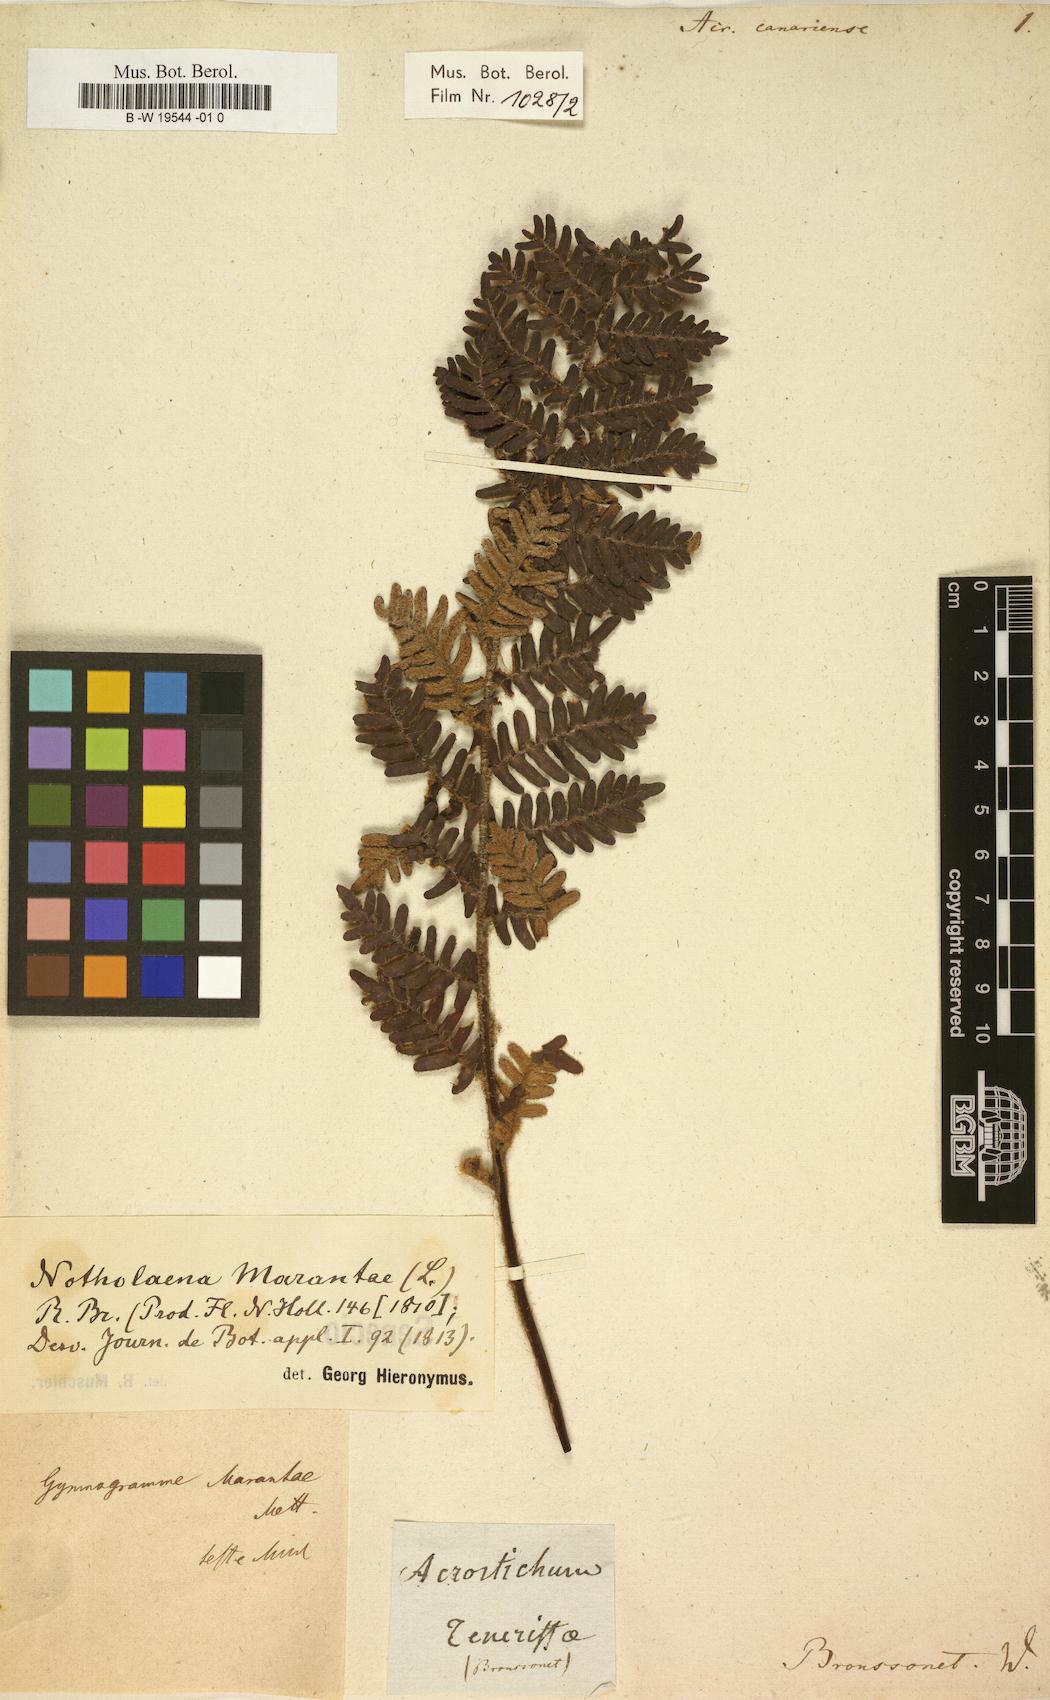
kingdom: Plantae
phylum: Tracheophyta
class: Polypodiopsida
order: Polypodiales
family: Pteridaceae
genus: Paragymnopteris
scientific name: Paragymnopteris marantae
